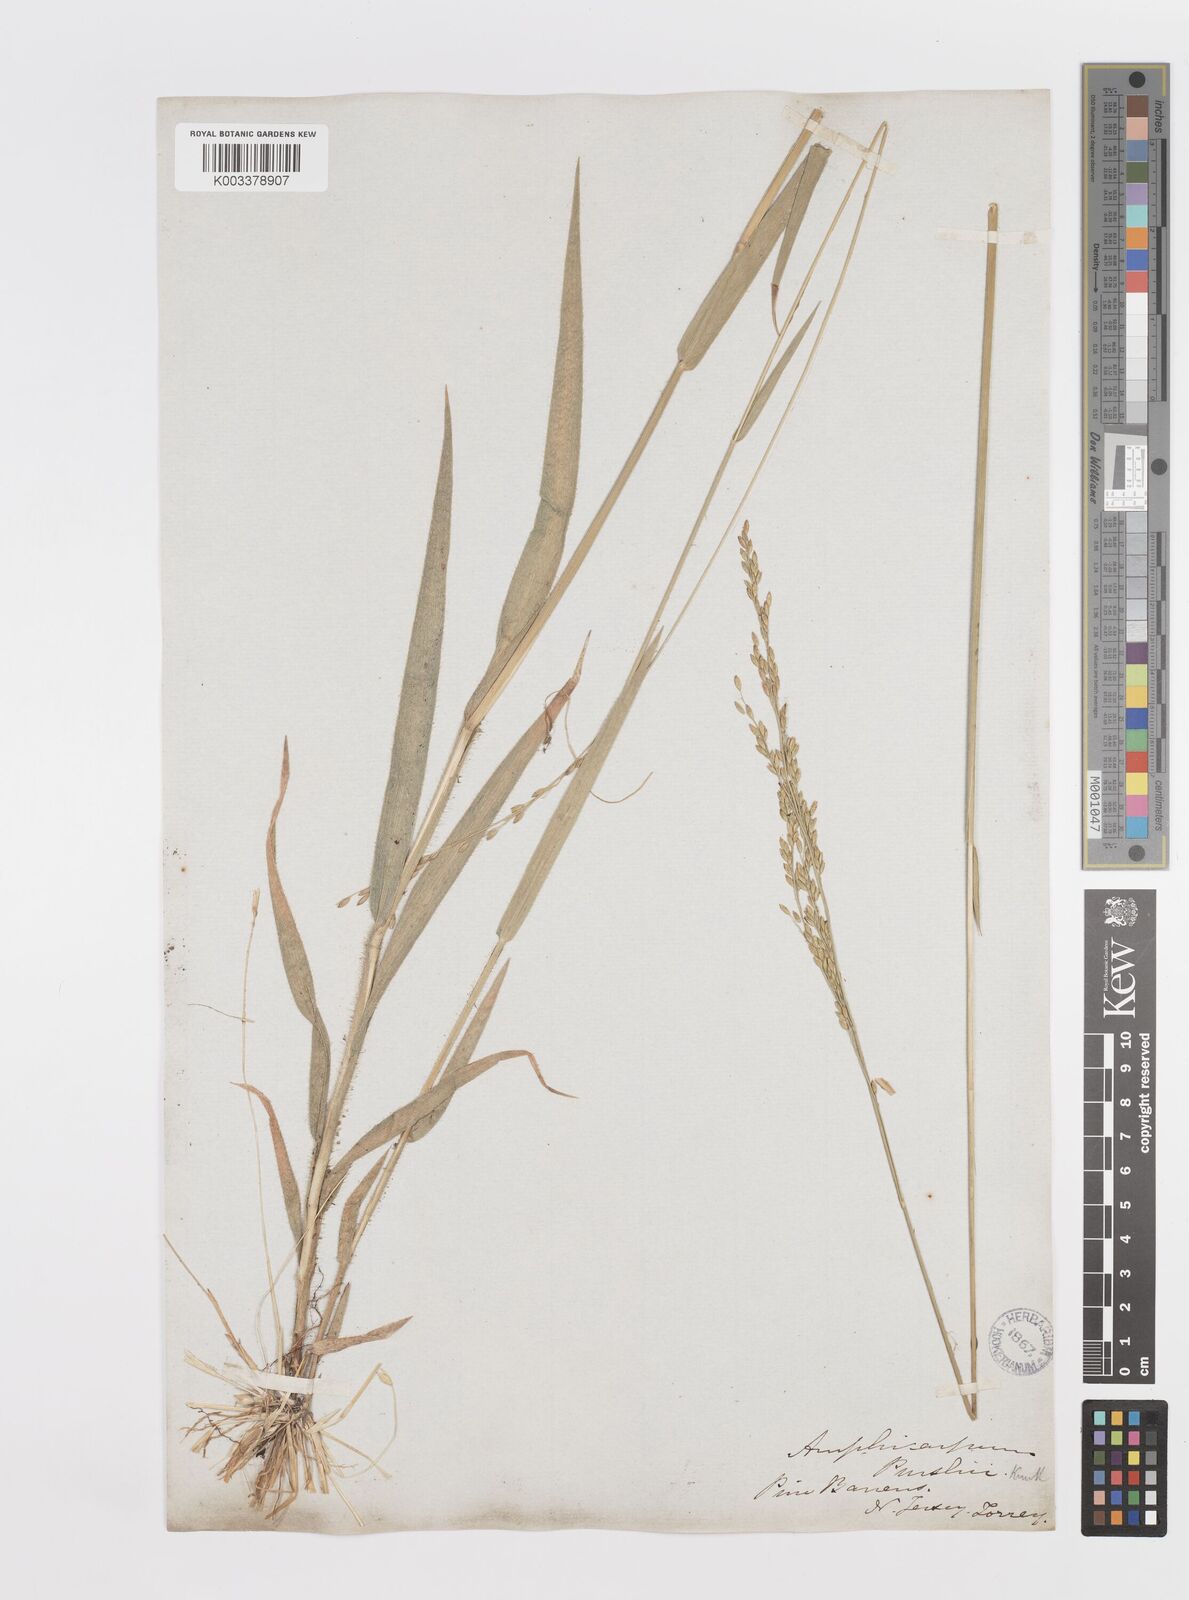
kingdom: Plantae
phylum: Tracheophyta
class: Liliopsida
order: Poales
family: Poaceae
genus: Amphicarpum
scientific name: Amphicarpum amphicarpon
